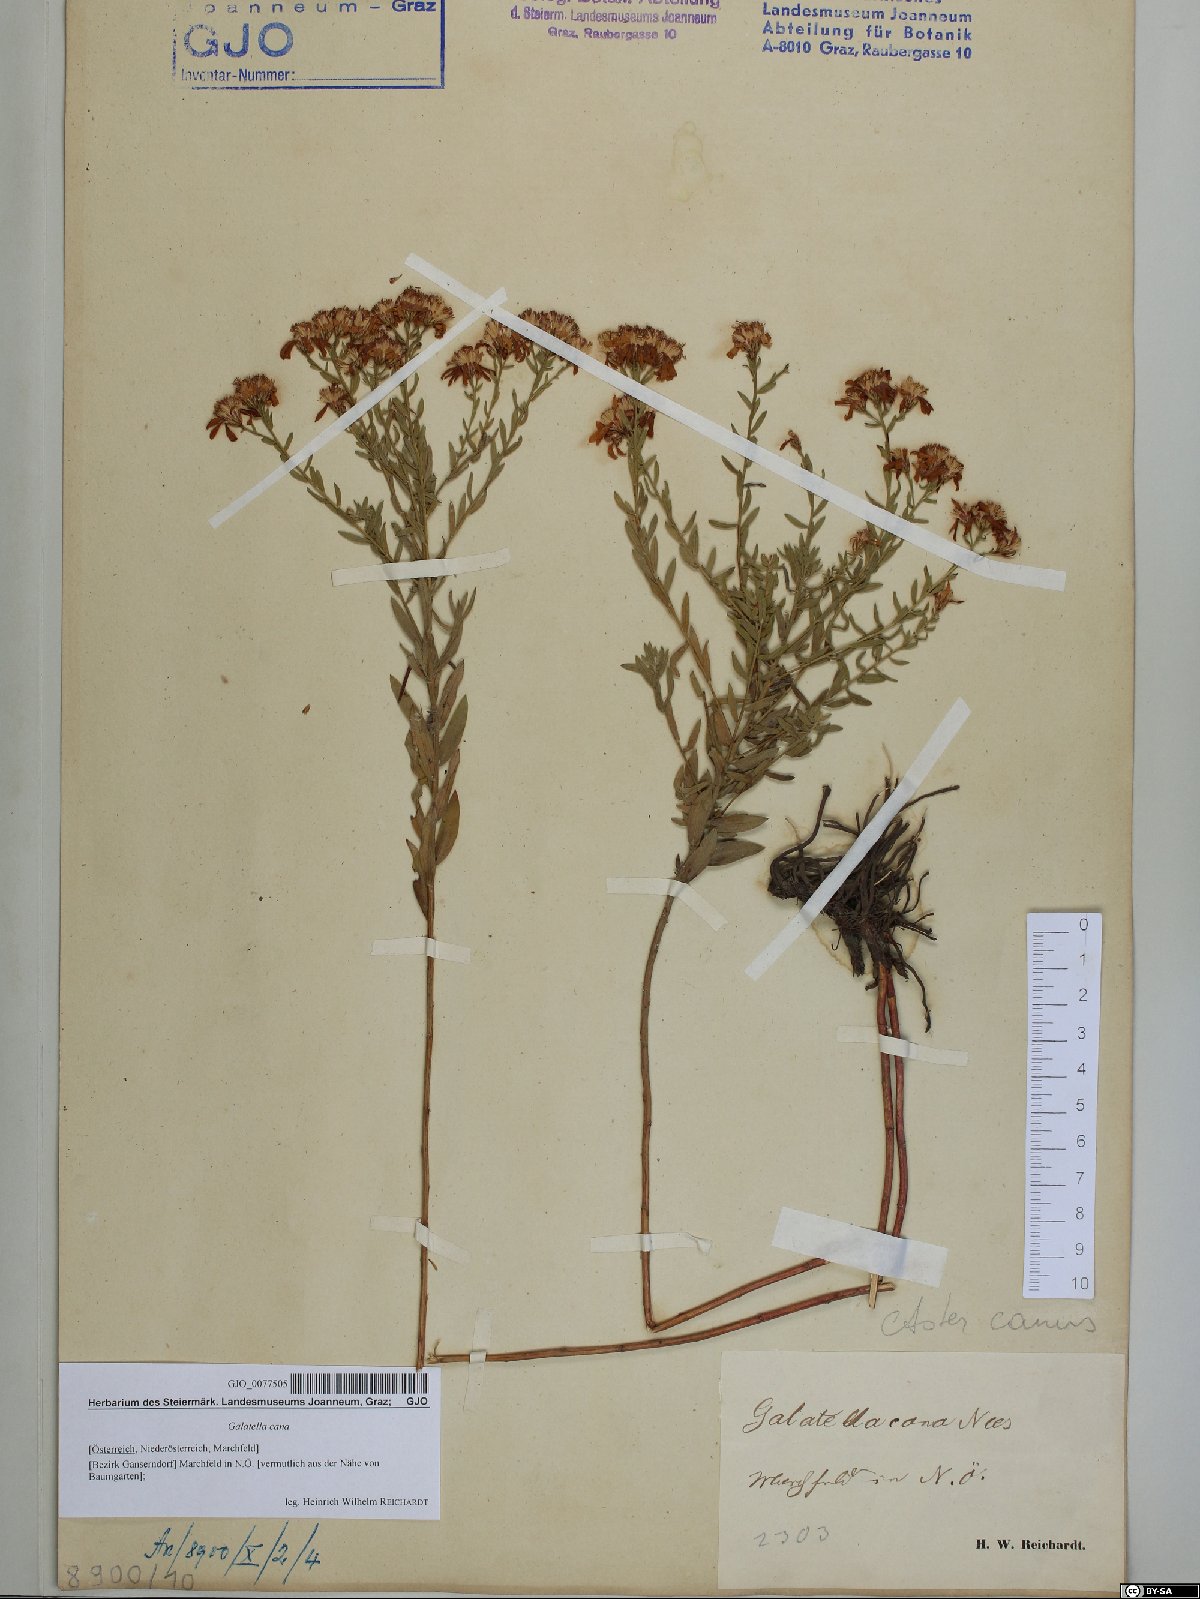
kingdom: Plantae
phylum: Tracheophyta
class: Magnoliopsida
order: Asterales
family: Asteraceae
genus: Galatella
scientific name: Galatella cana
